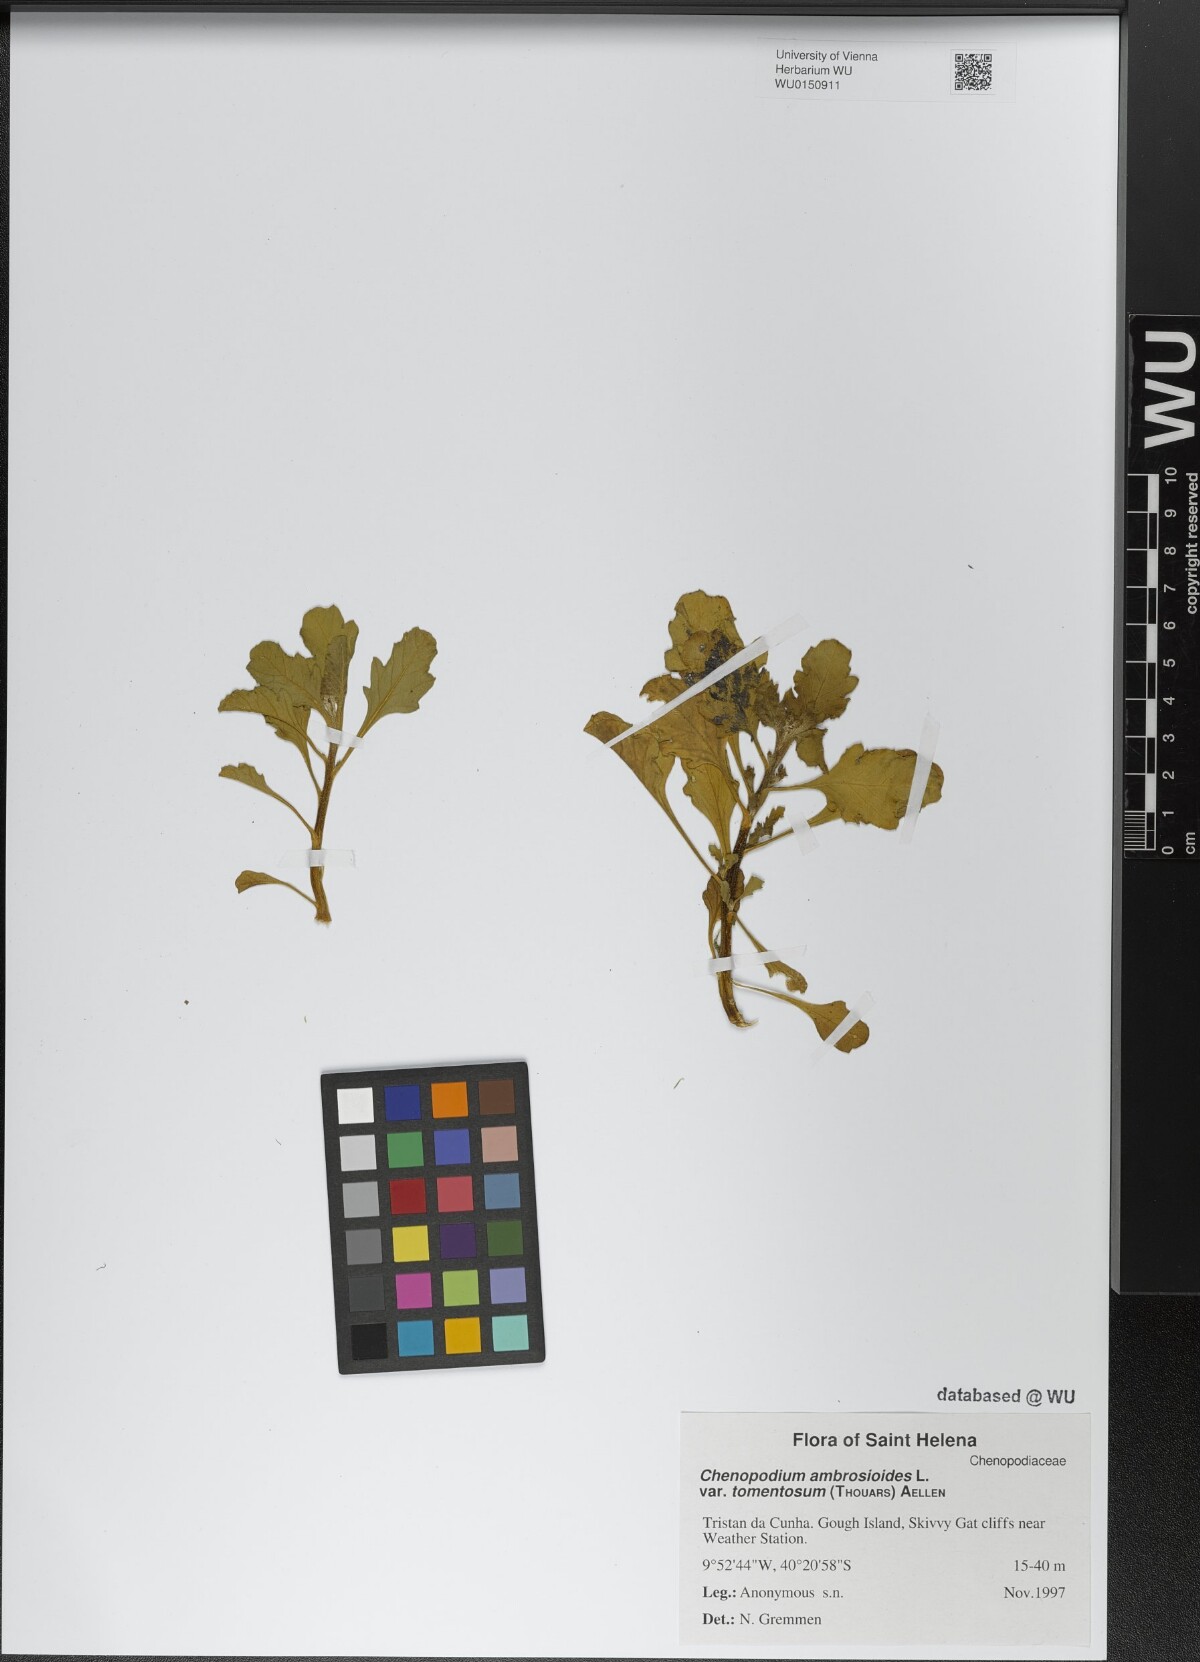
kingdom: Plantae
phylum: Tracheophyta
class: Magnoliopsida
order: Caryophyllales
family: Amaranthaceae
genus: Dysphania
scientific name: Dysphania tomentosa
